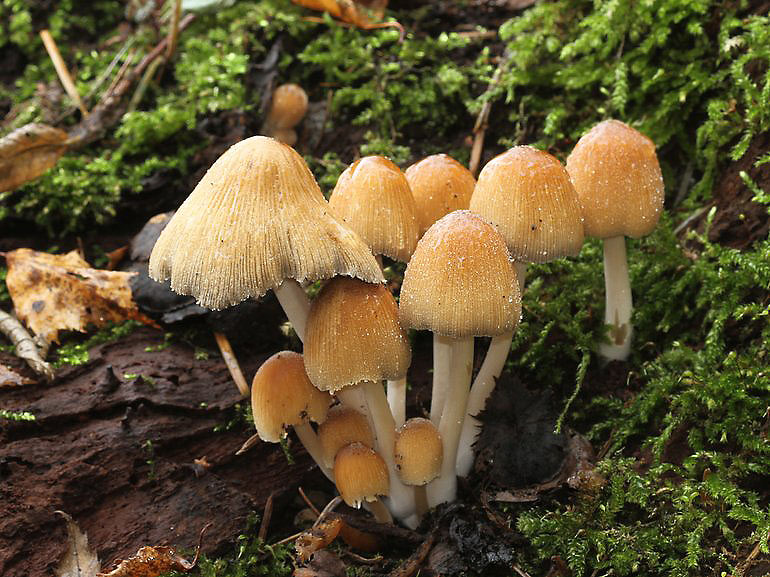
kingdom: Fungi
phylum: Basidiomycota
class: Agaricomycetes
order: Agaricales
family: Psathyrellaceae
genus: Coprinellus
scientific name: Coprinellus micaceus
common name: glimmer-blækhat
